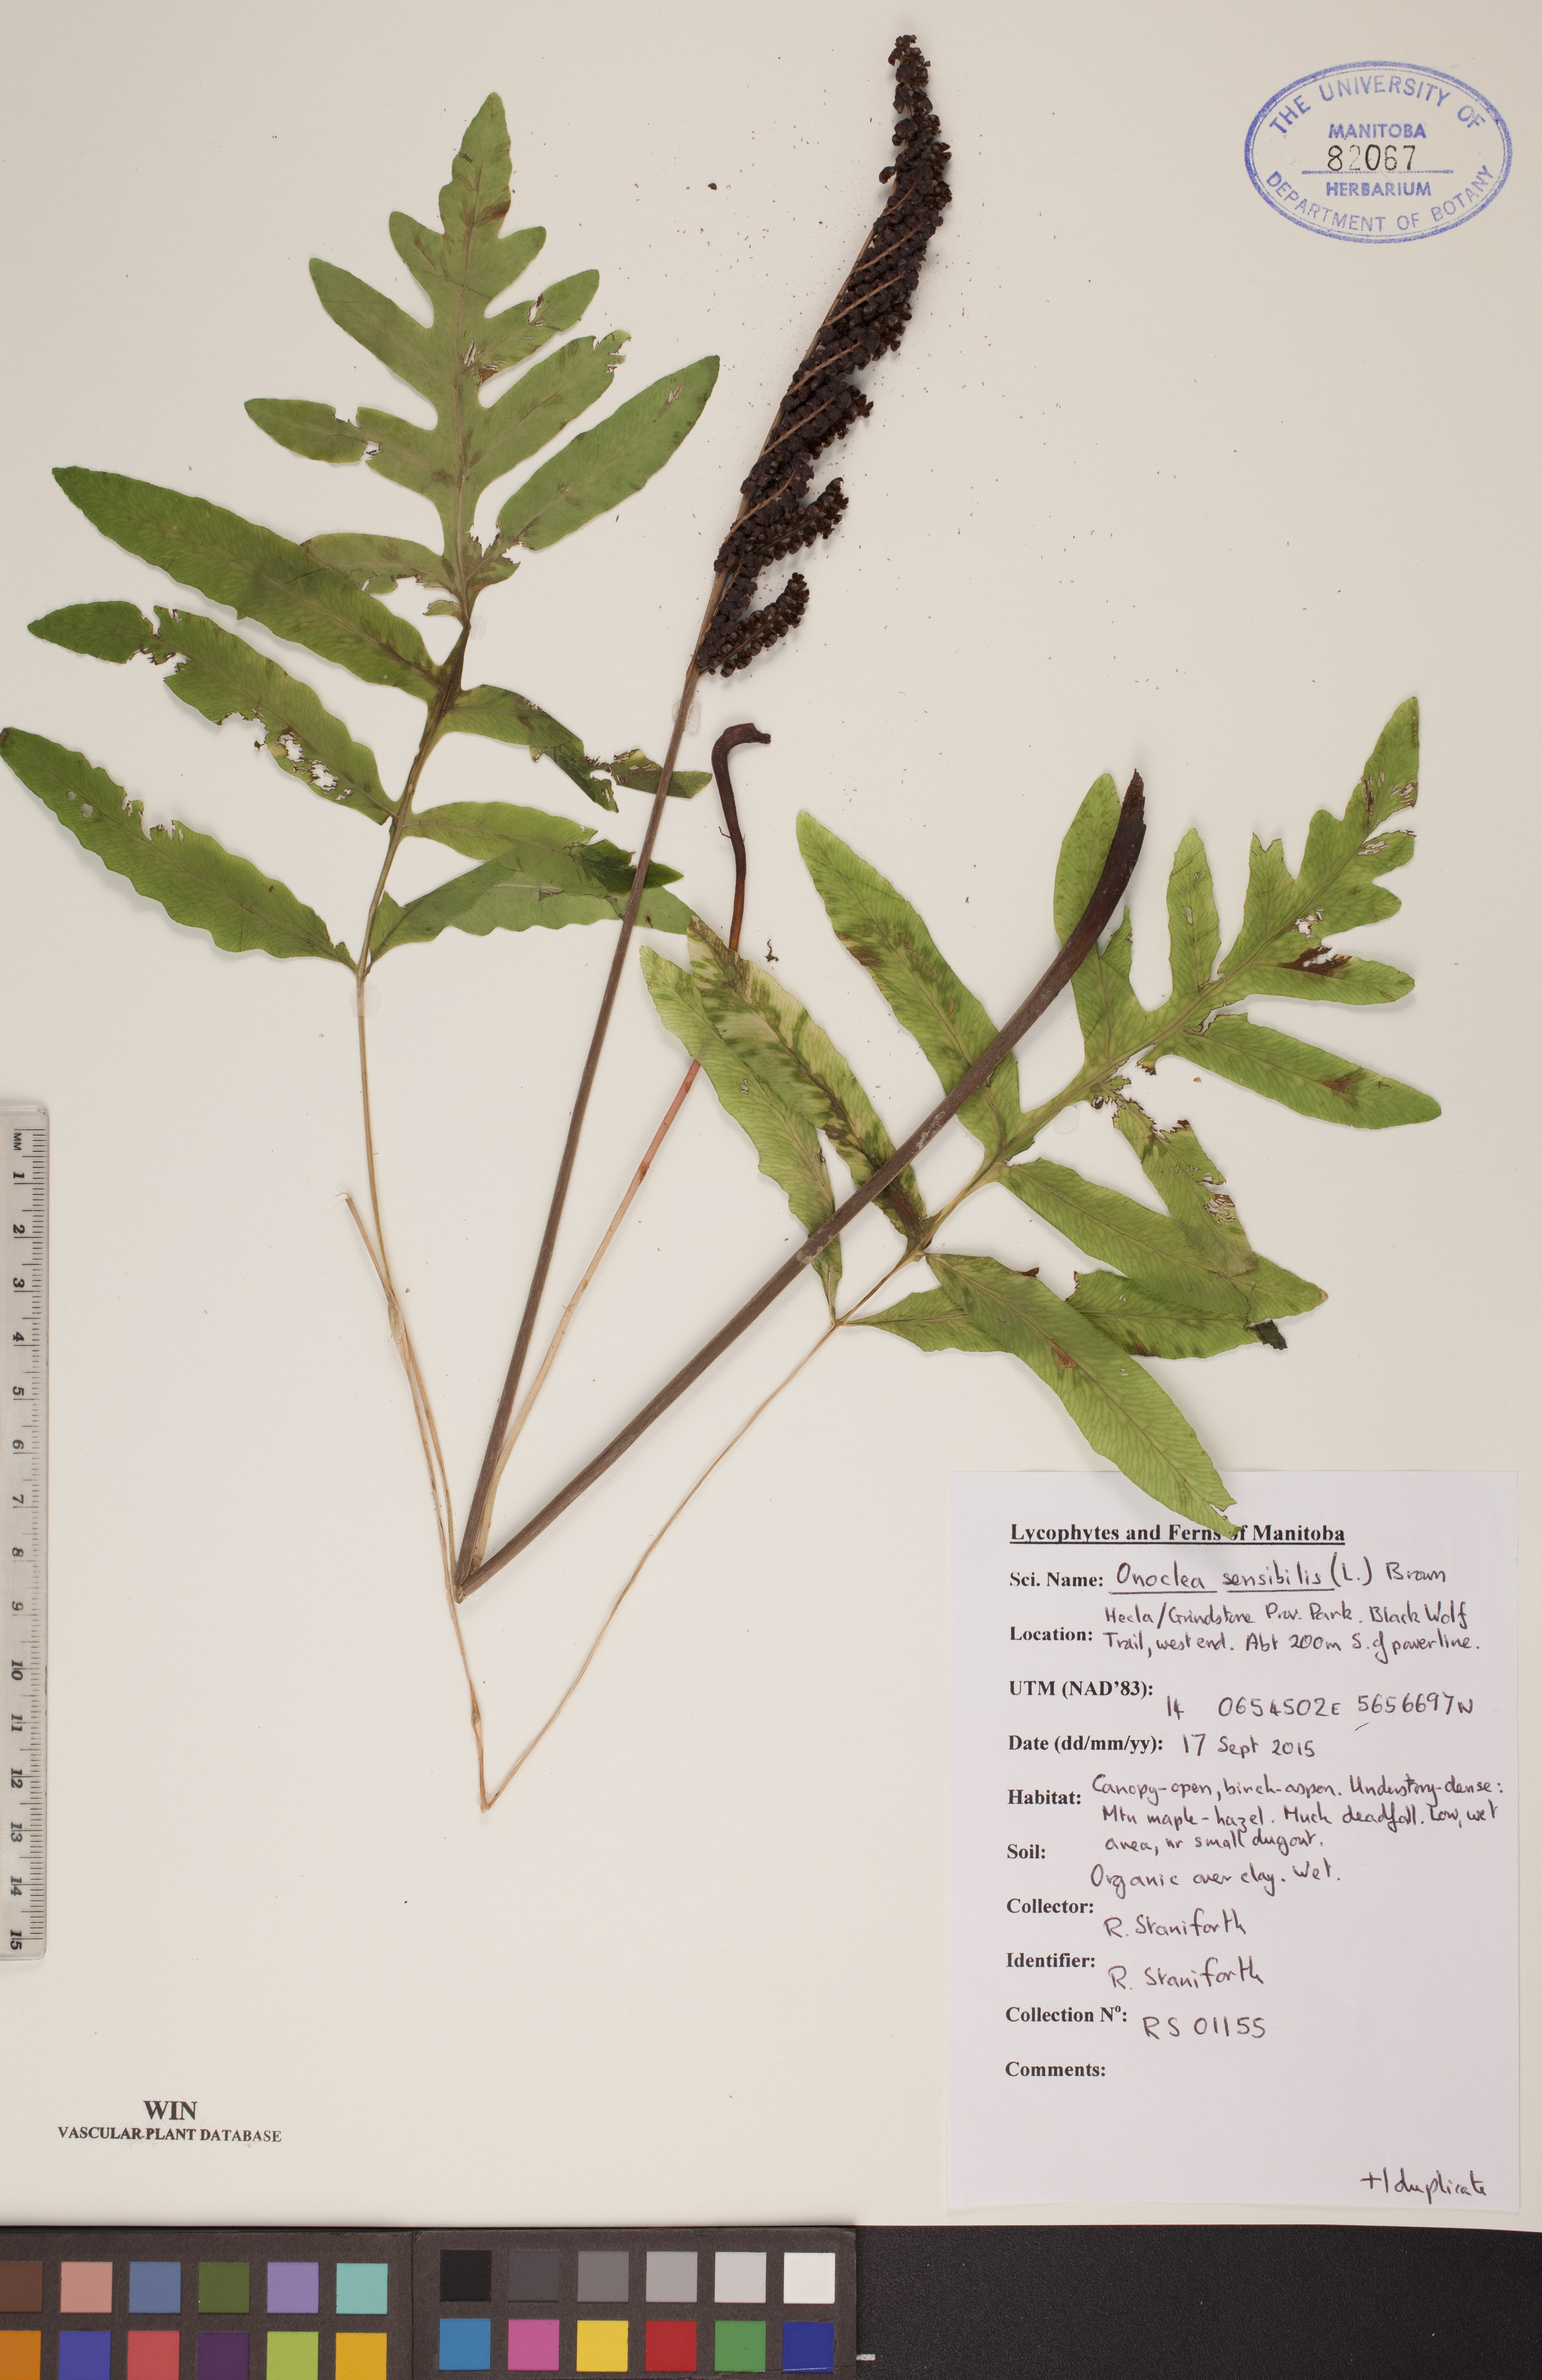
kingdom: Plantae
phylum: Tracheophyta
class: Polypodiopsida
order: Polypodiales
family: Onocleaceae
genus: Onoclea
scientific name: Onoclea sensibilis
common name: Sensitive fern
